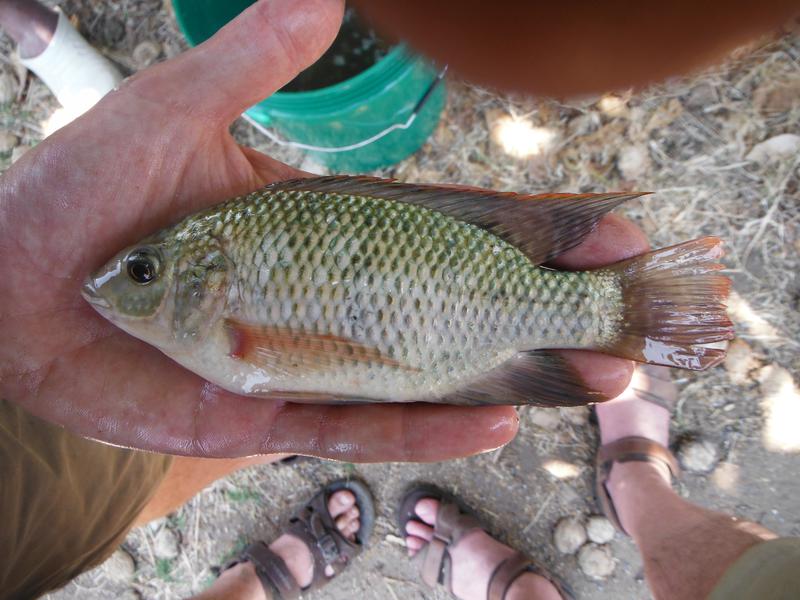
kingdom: Animalia
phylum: Chordata
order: Perciformes
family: Cichlidae
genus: Oreochromis
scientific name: Oreochromis
